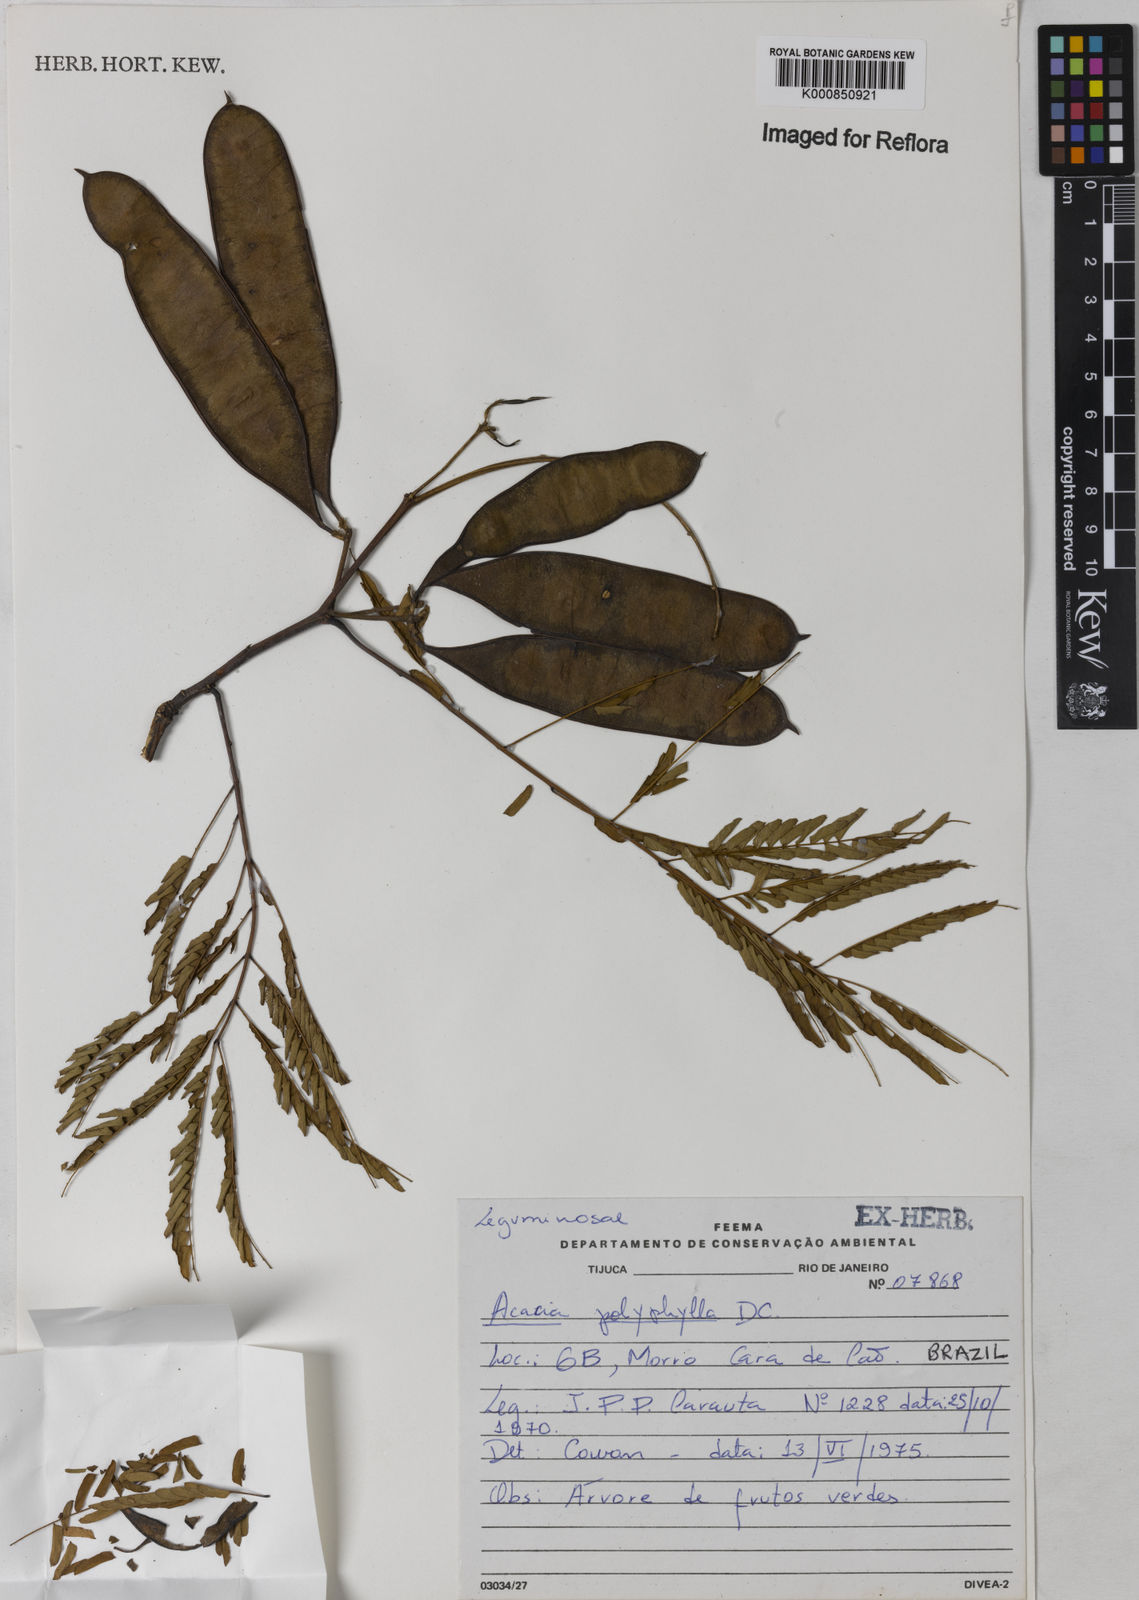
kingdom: Plantae
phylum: Tracheophyta
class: Magnoliopsida
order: Fabales
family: Fabaceae
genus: Senegalia
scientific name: Senegalia polyphylla
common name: White-tamarind
